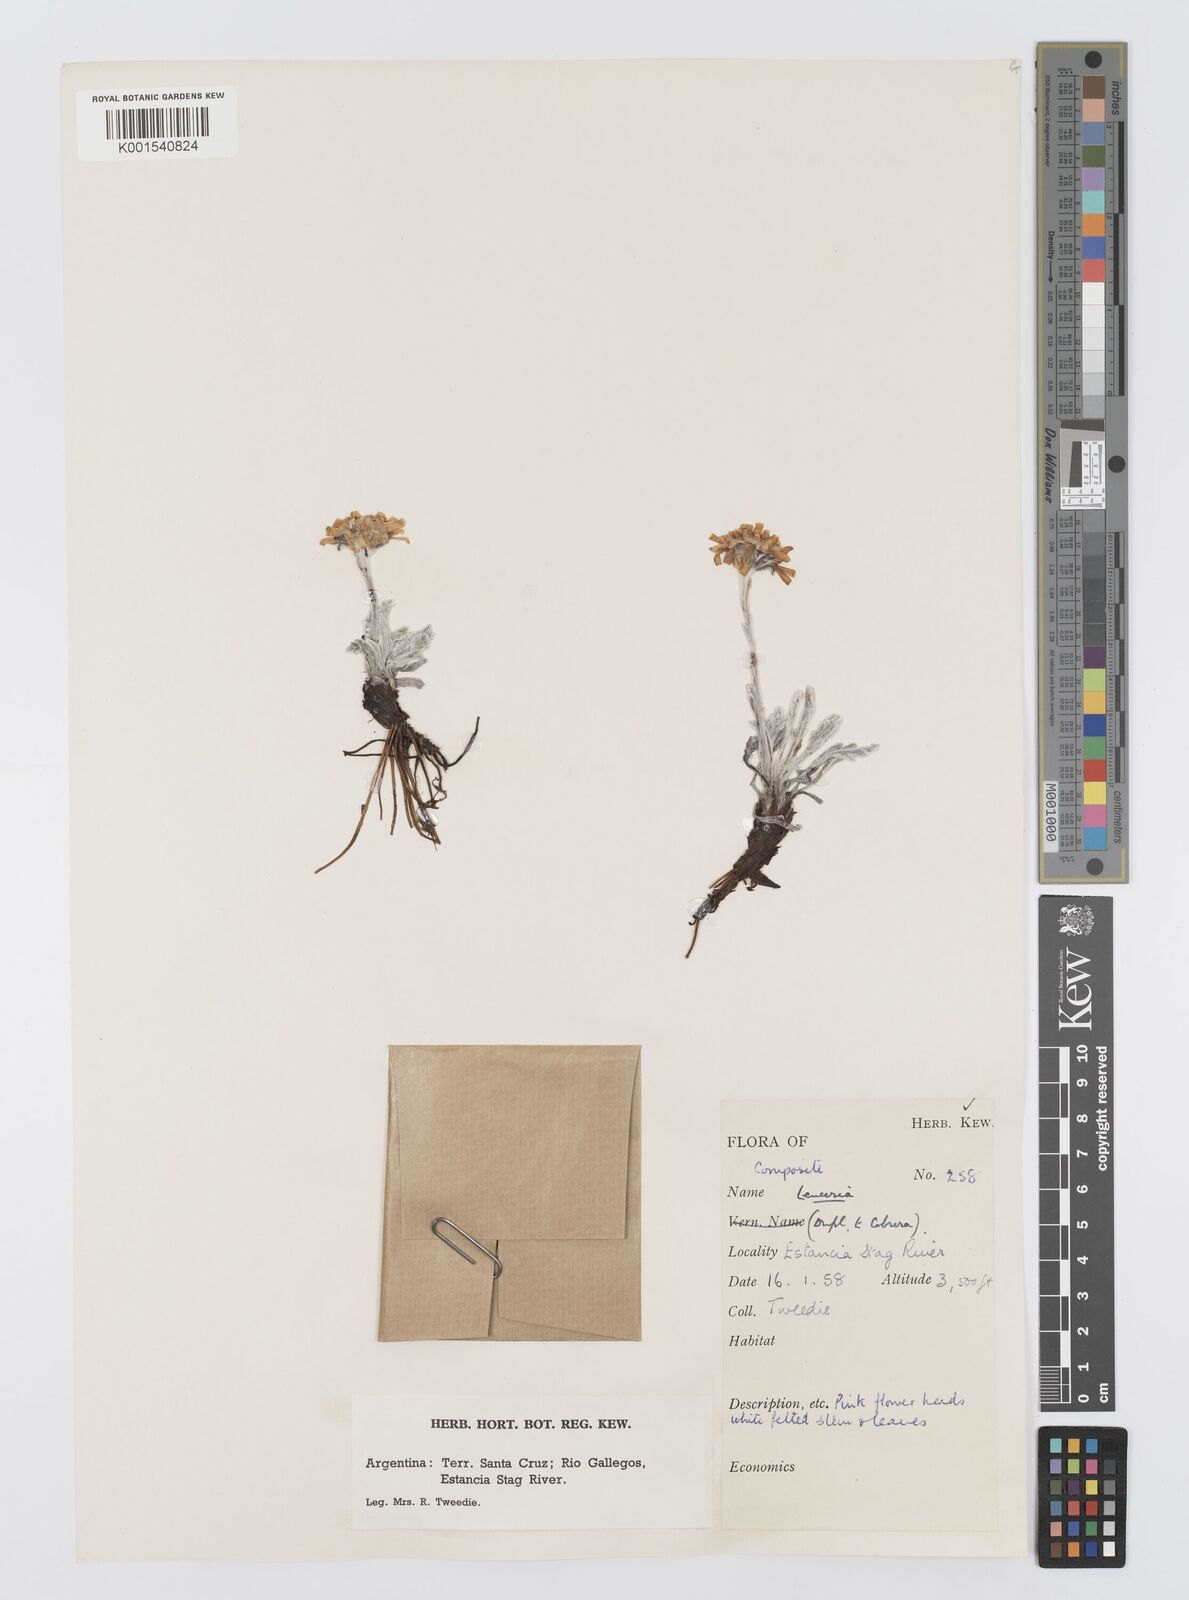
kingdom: Plantae
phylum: Tracheophyta
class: Magnoliopsida
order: Asterales
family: Asteraceae
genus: Leucheria
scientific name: Leucheria hahnii
